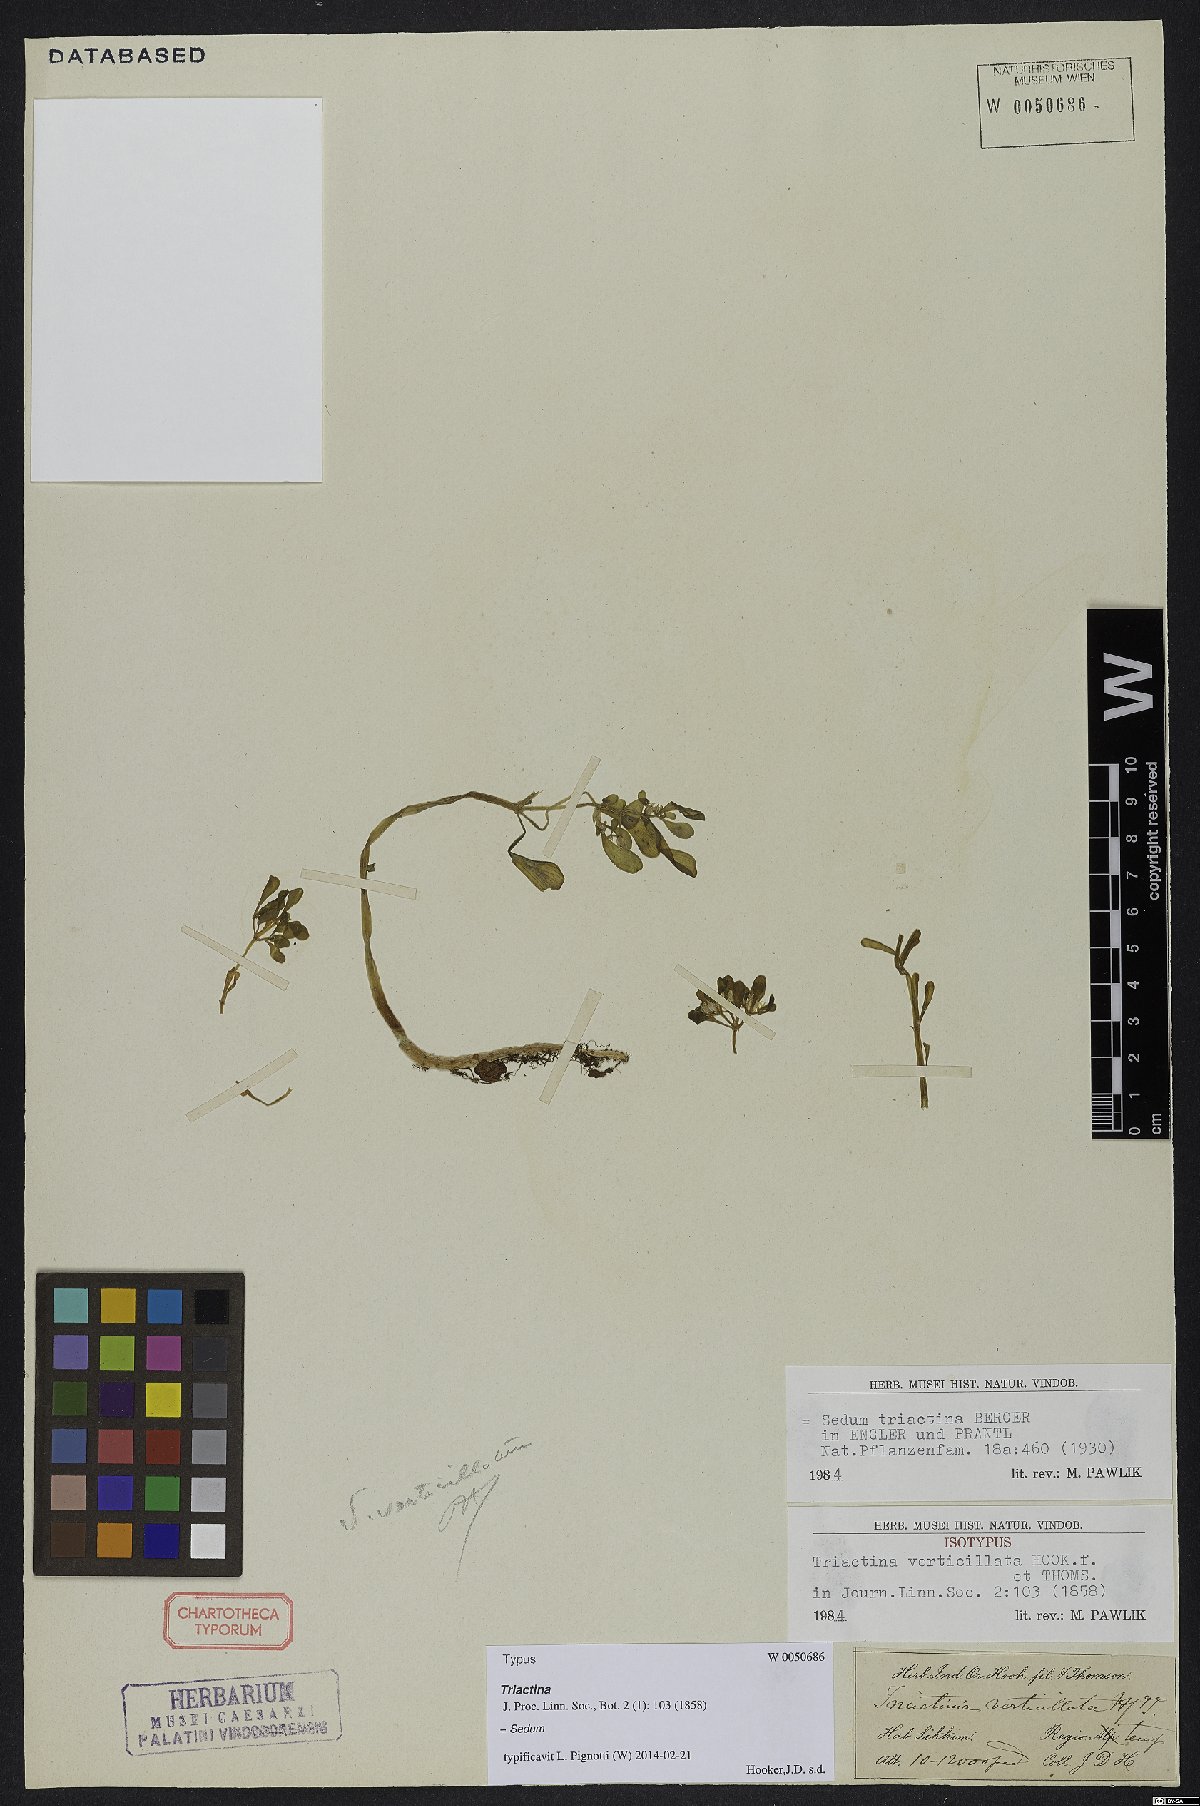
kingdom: Plantae
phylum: Tracheophyta
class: Magnoliopsida
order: Saxifragales
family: Crassulaceae
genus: Sedum
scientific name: Sedum triactina
